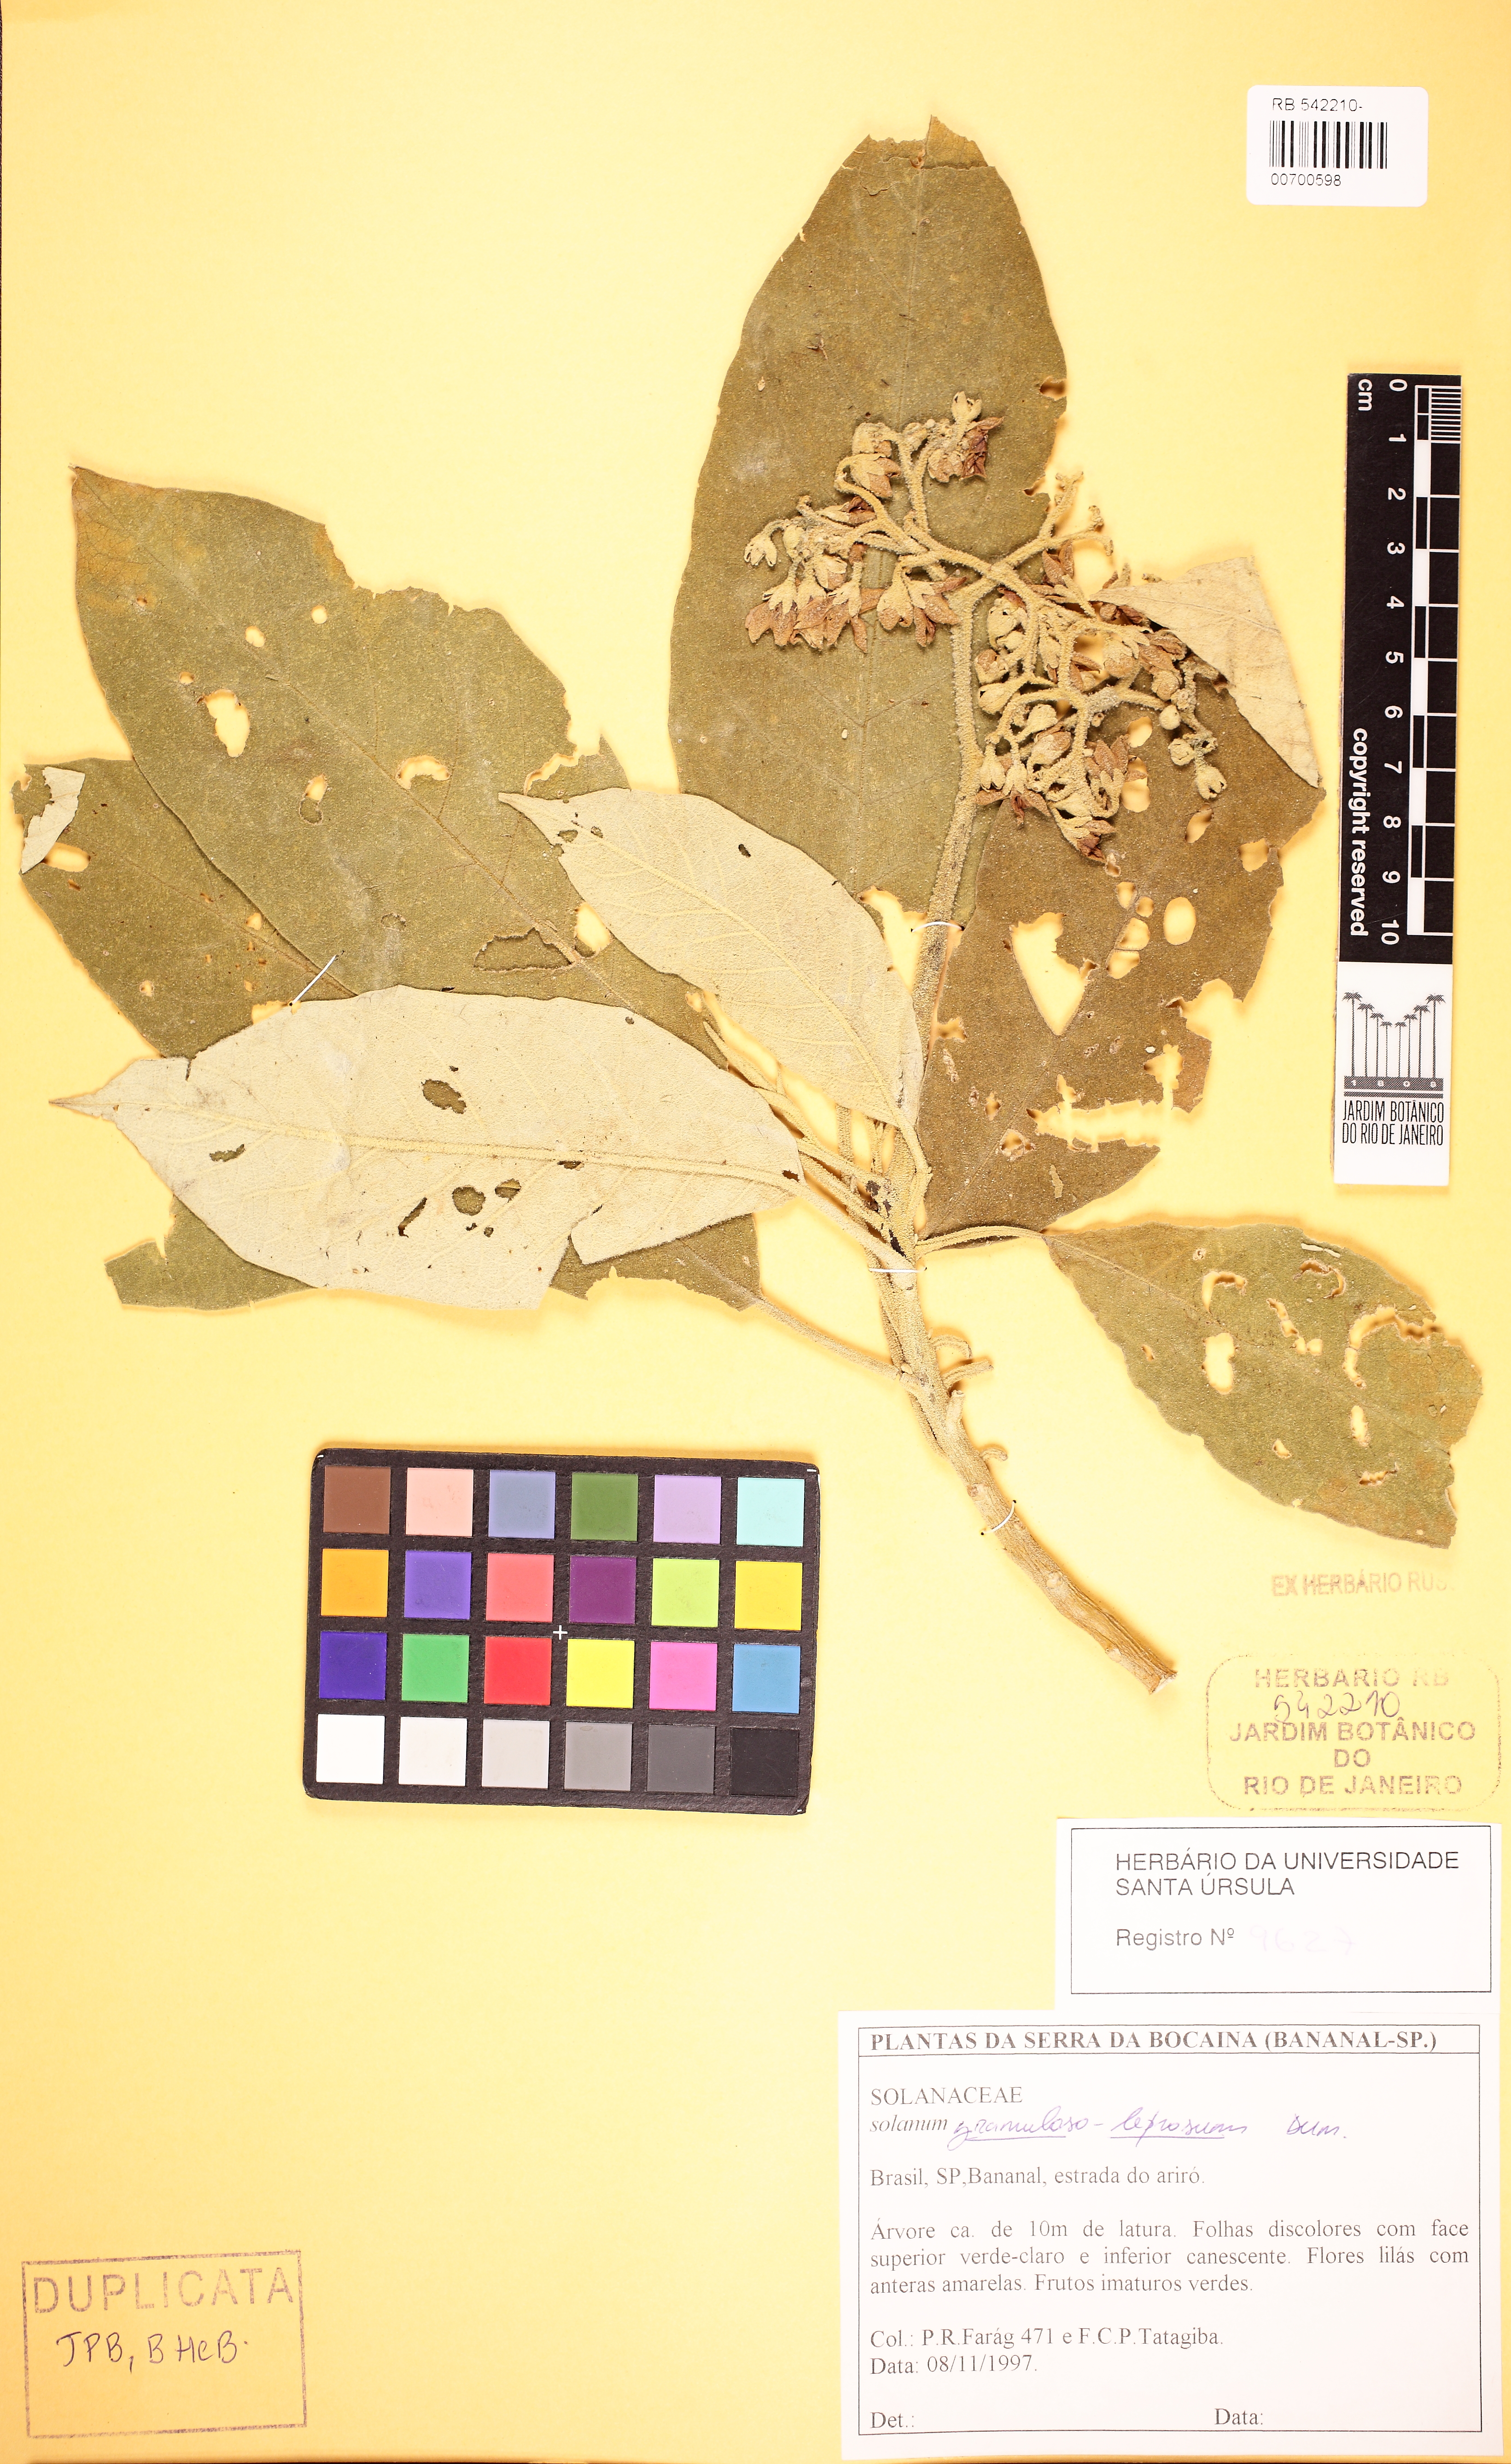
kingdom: Plantae
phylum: Tracheophyta
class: Magnoliopsida
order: Solanales
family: Solanaceae
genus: Solanum
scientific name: Solanum granulosoleprosum
